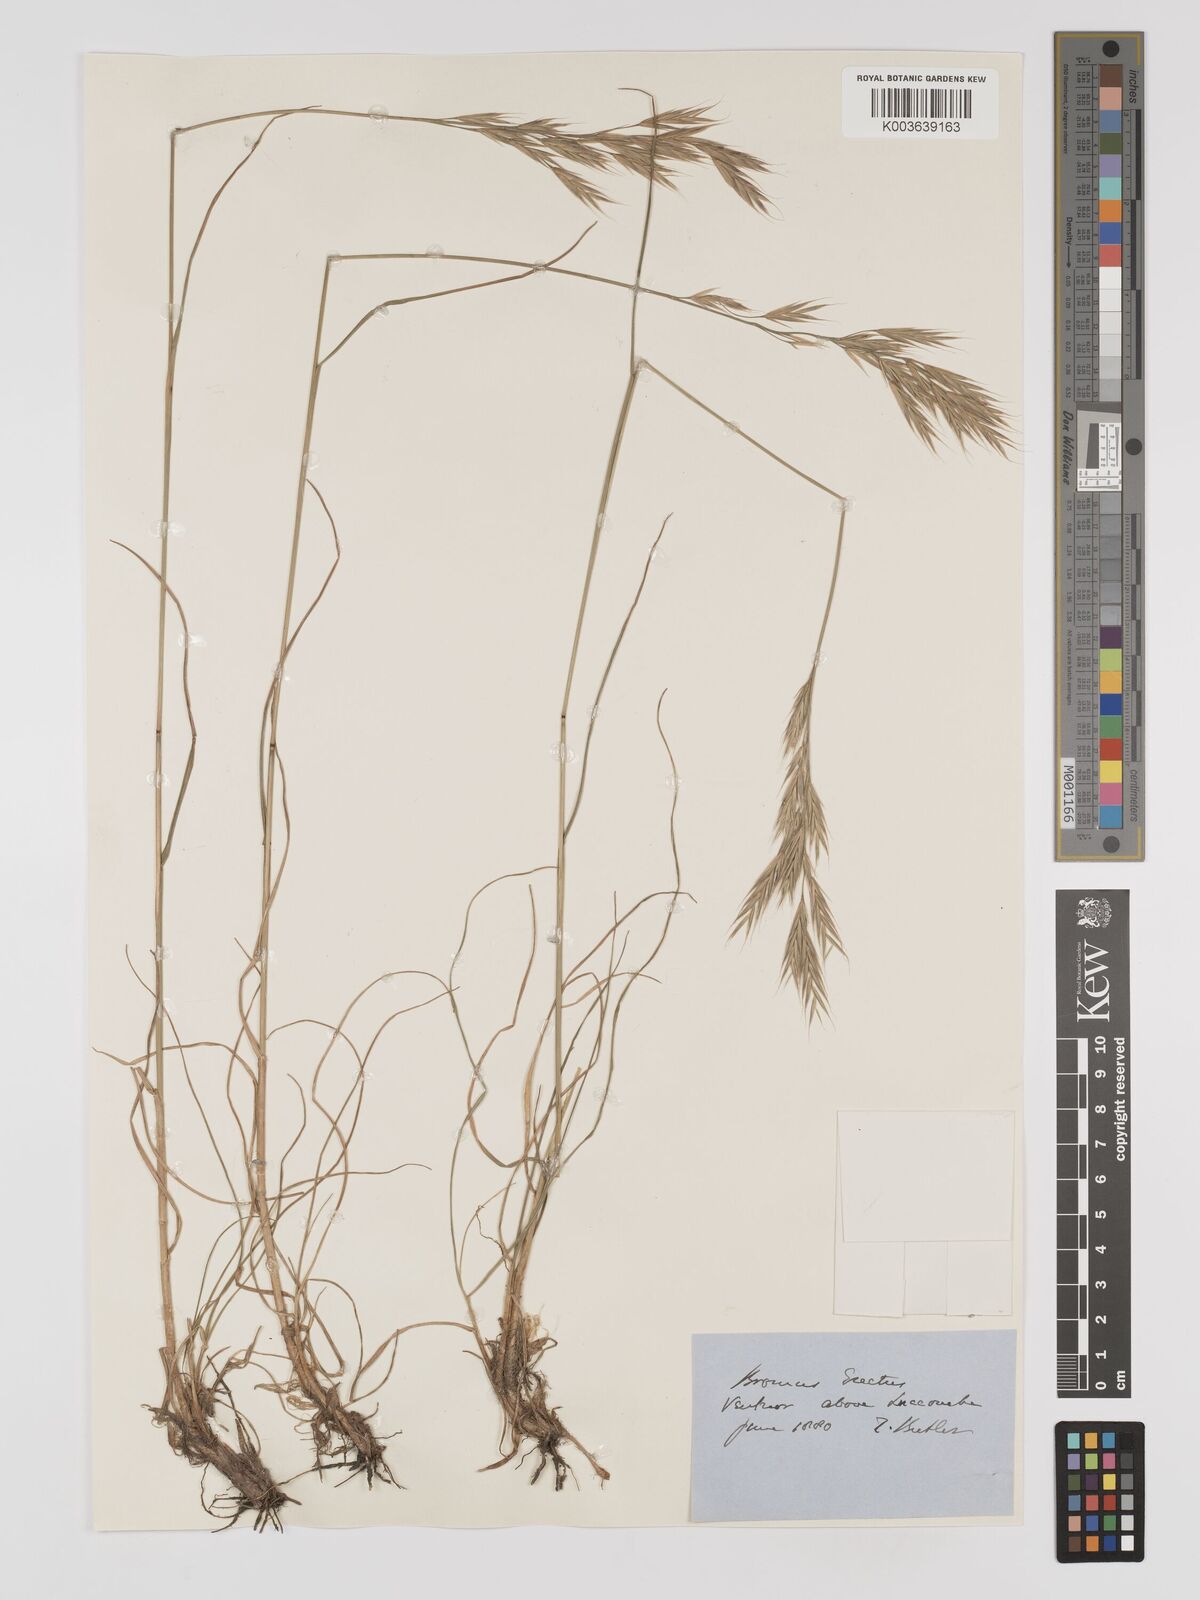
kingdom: Plantae
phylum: Tracheophyta
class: Liliopsida
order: Poales
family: Poaceae
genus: Bromus
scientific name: Bromus erectus
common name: Erect brome
